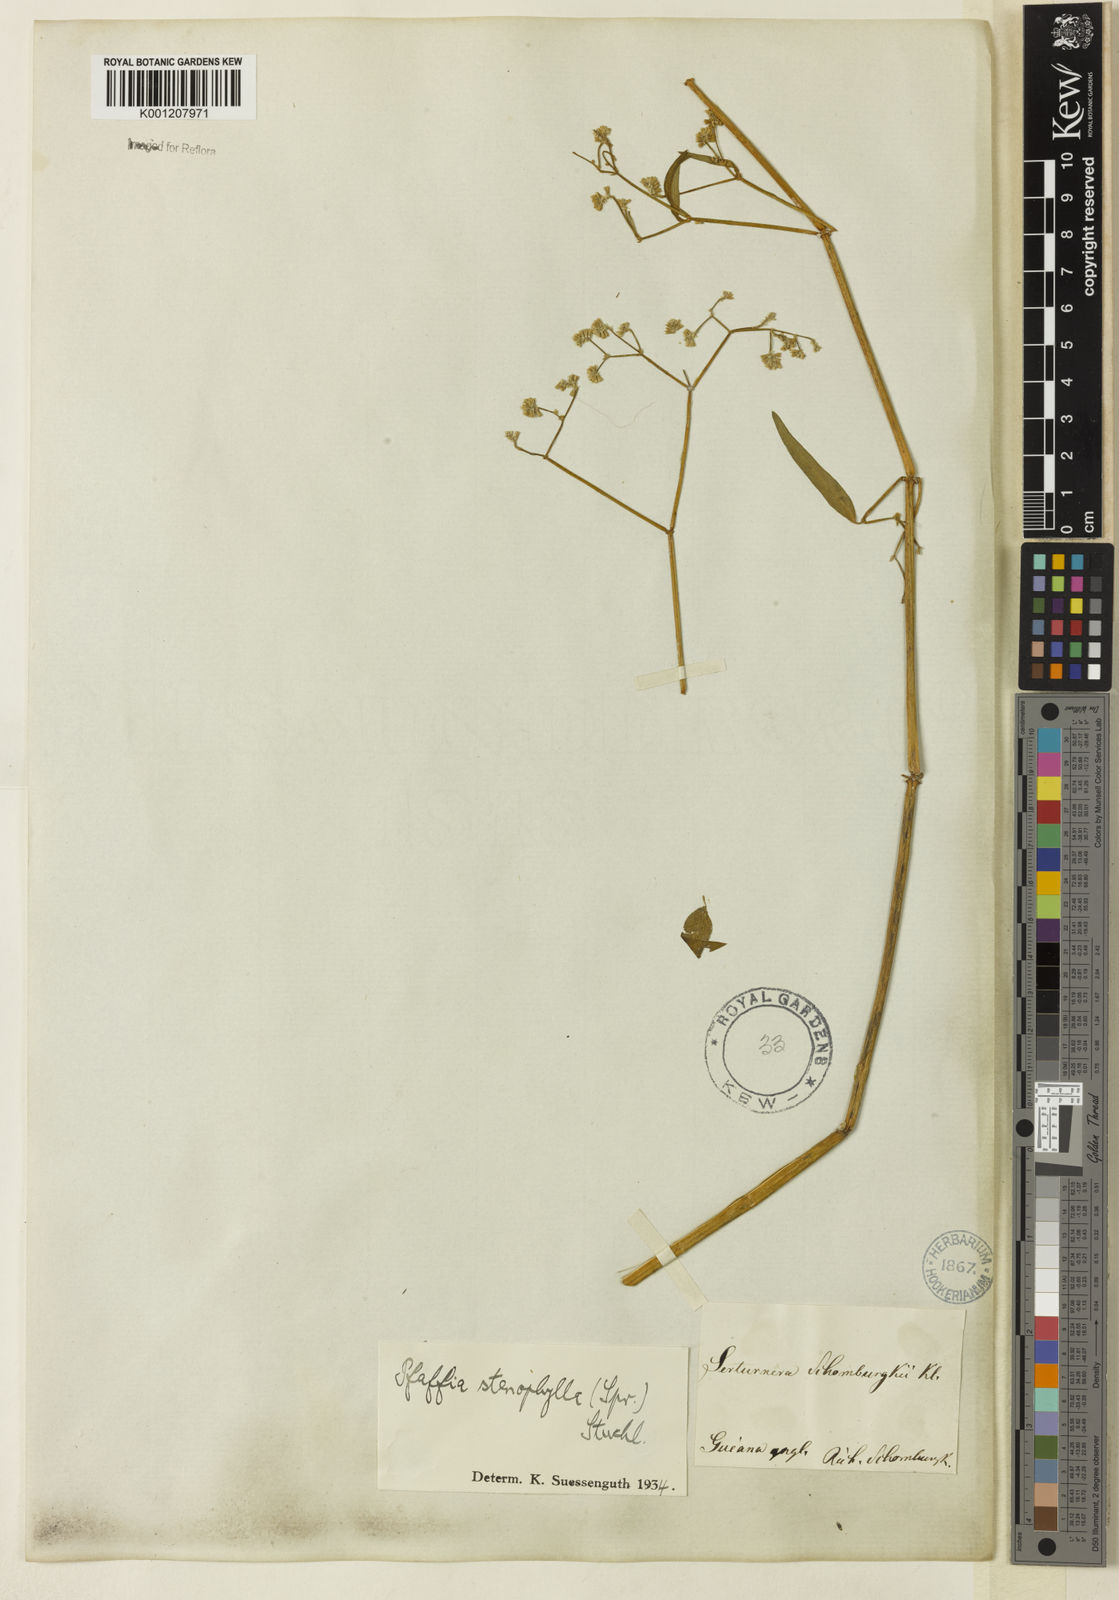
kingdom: Plantae
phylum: Tracheophyta
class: Magnoliopsida
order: Caryophyllales
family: Amaranthaceae
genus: Pfaffia
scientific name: Pfaffia
